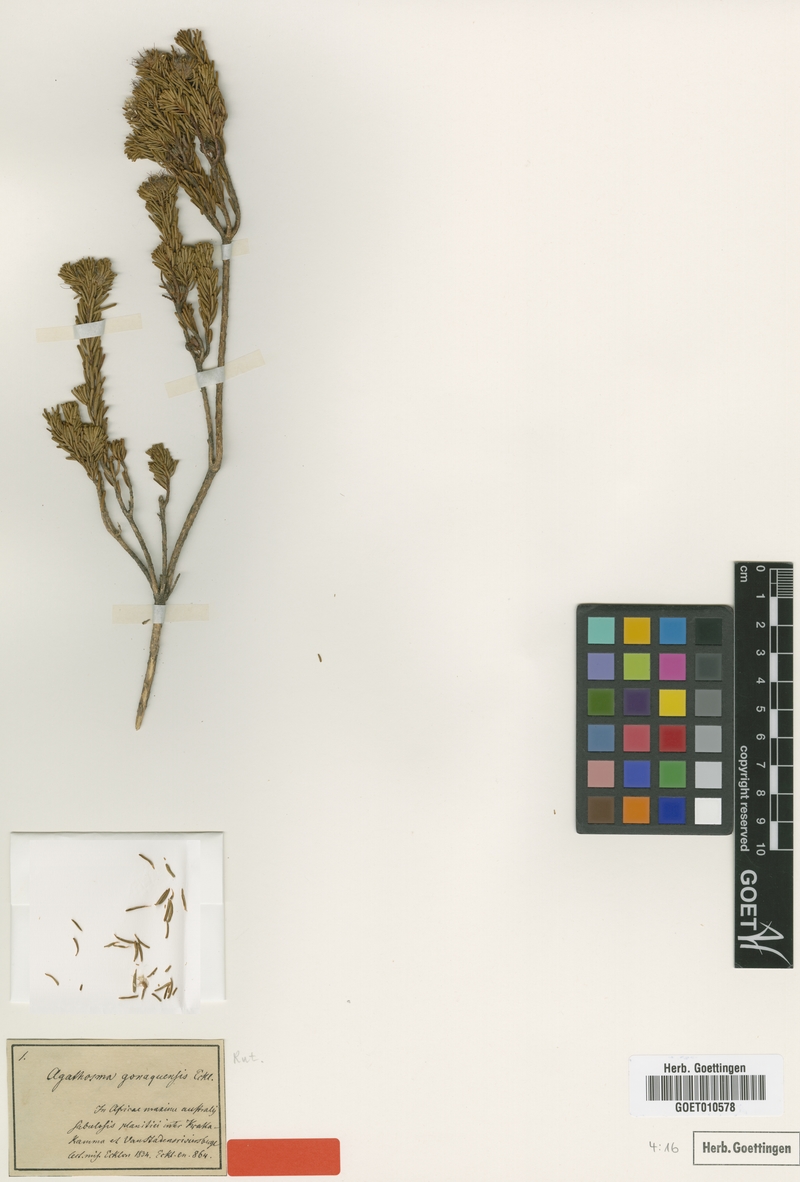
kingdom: Plantae
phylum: Tracheophyta
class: Magnoliopsida
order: Sapindales
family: Rutaceae
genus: Agathosma
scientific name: Agathosma gonaquensis
